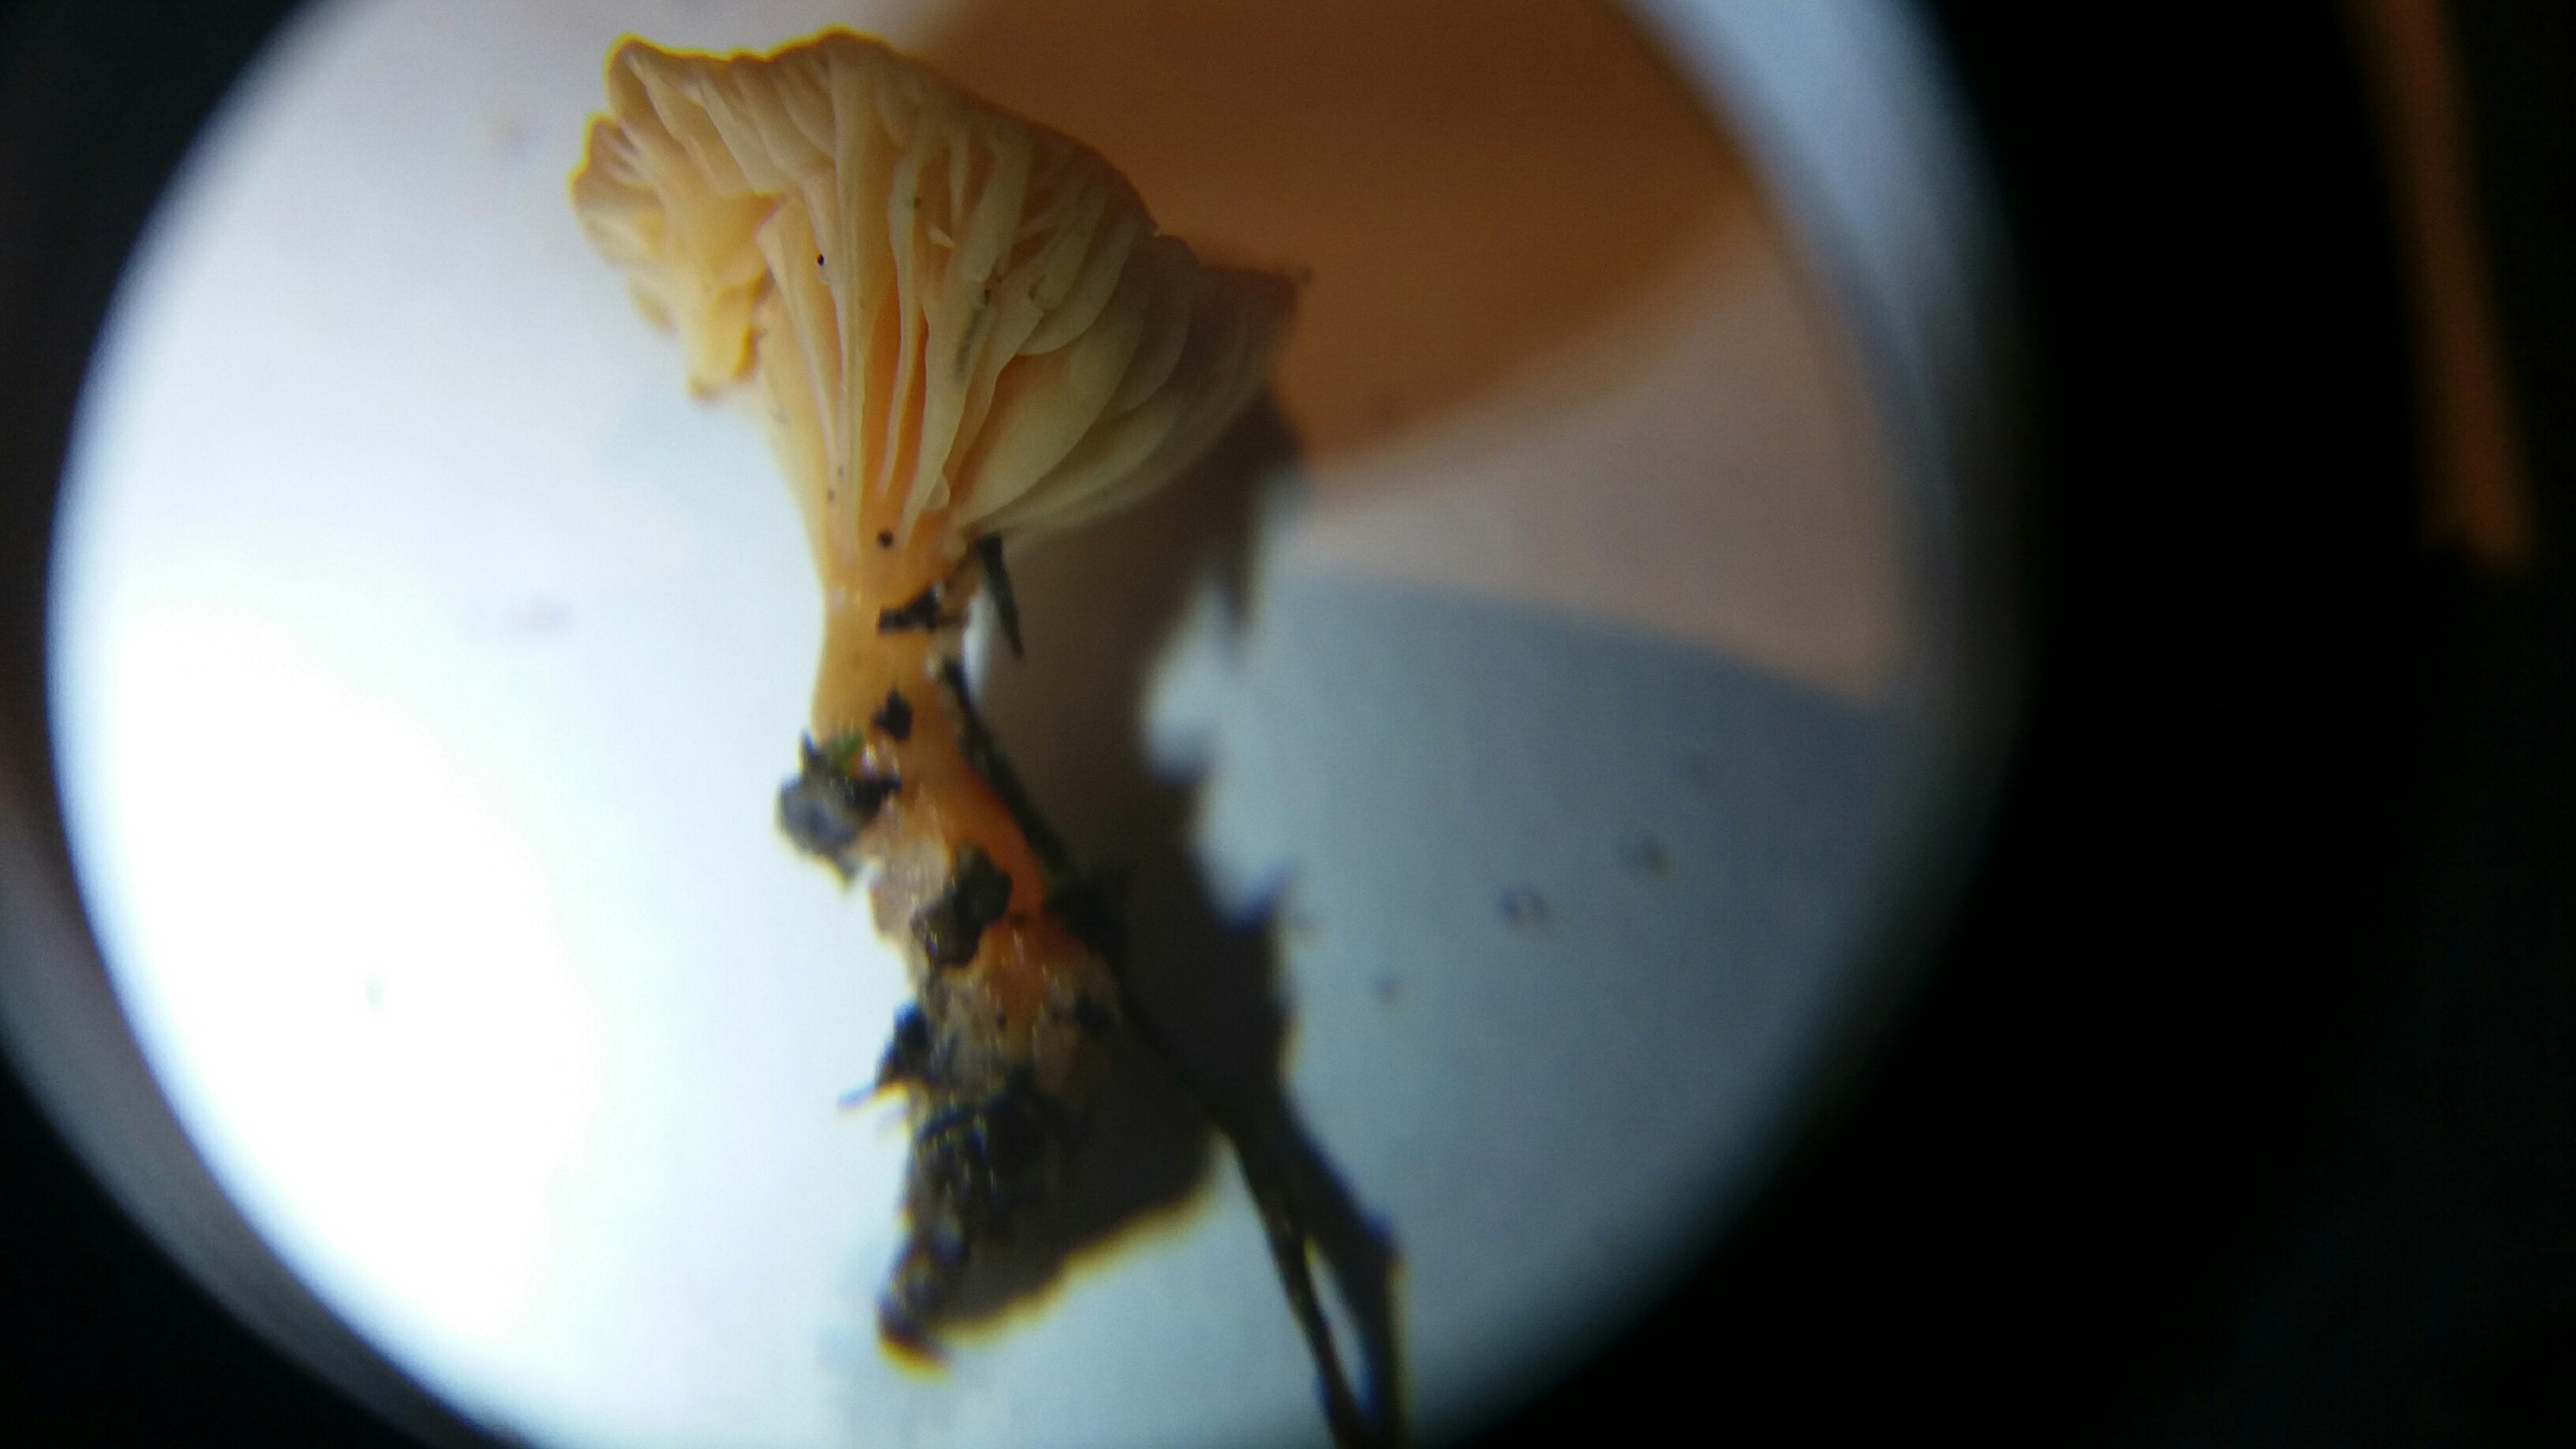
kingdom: Fungi
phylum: Basidiomycota
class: Agaricomycetes
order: Hymenochaetales
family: Rickenellaceae
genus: Rickenella
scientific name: Rickenella fibula
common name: orange mosnavlehat
